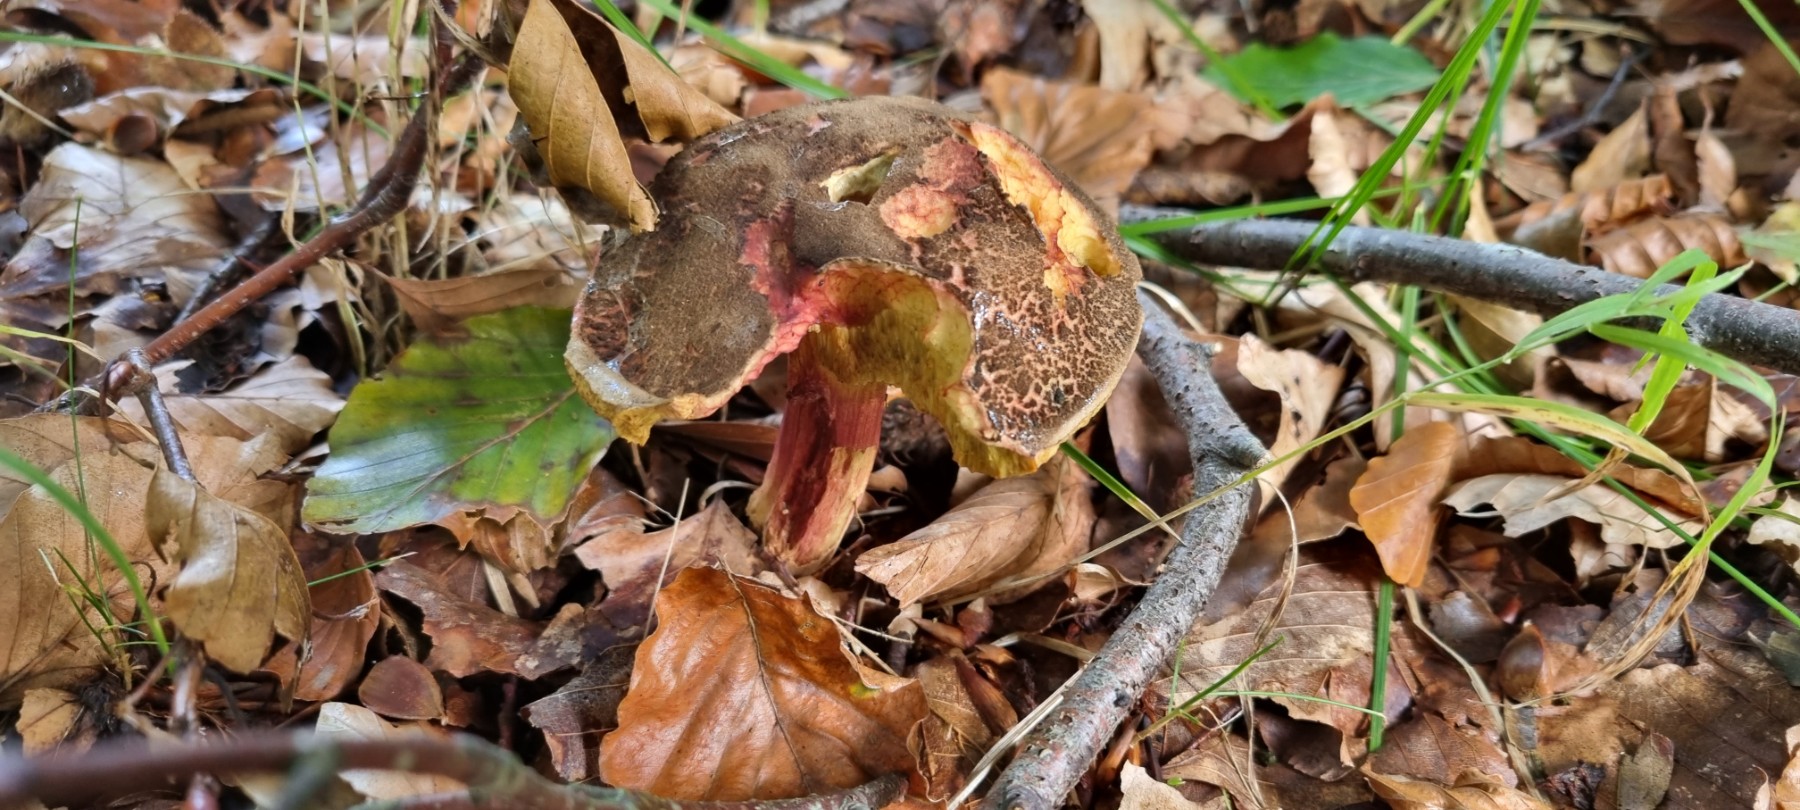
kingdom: Fungi
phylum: Basidiomycota
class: Agaricomycetes
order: Boletales
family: Boletaceae
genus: Xerocomellus
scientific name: Xerocomellus
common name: dværgrørhat
